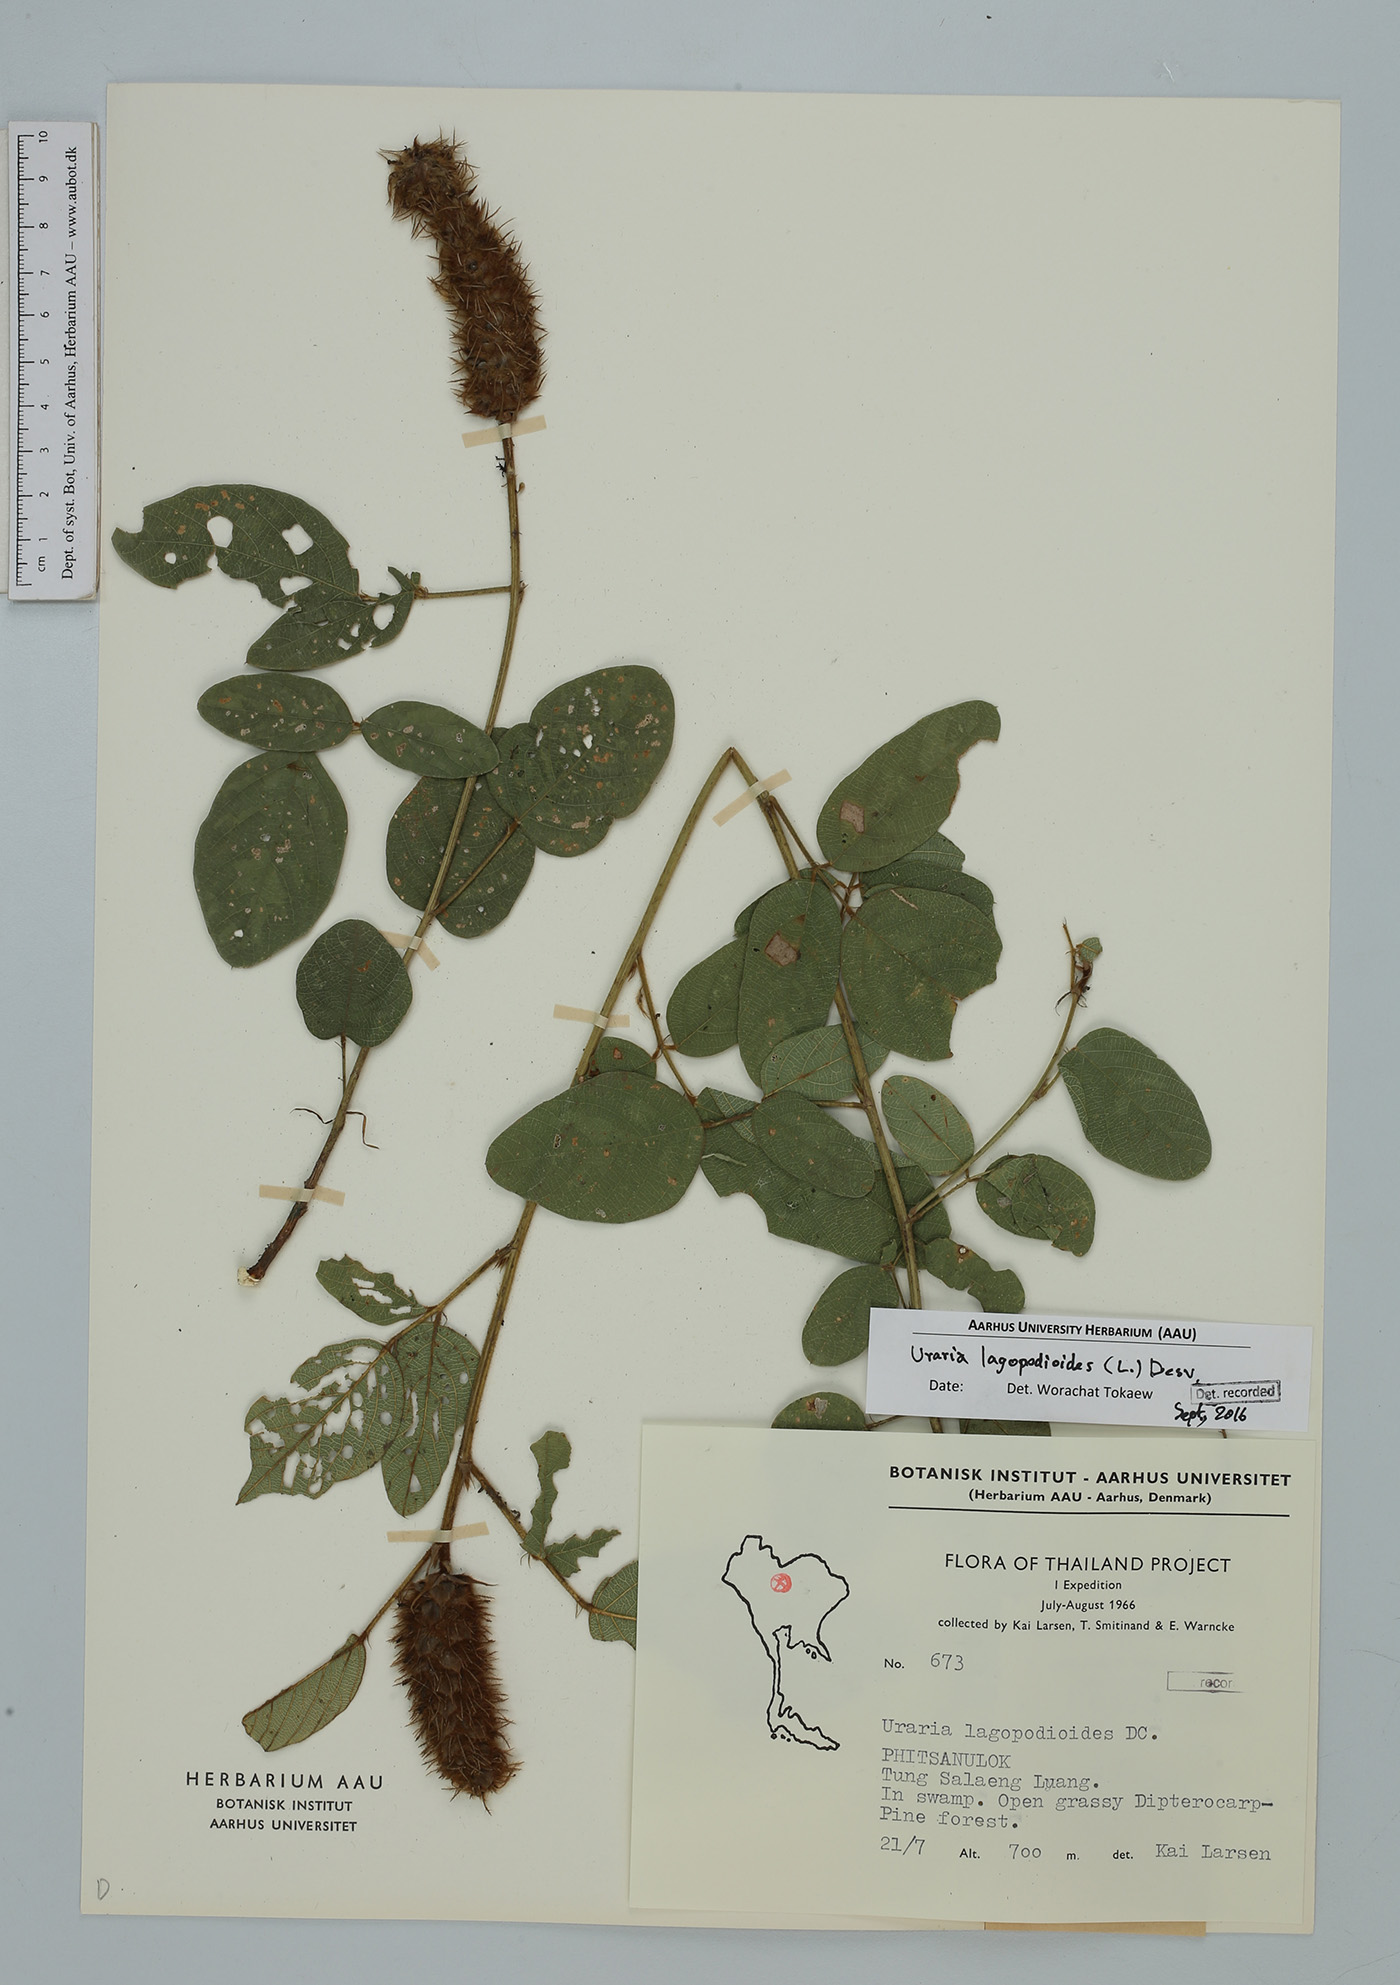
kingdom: Plantae
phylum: Tracheophyta
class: Magnoliopsida
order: Fabales
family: Fabaceae
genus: Uraria
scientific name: Uraria lagopodioides
